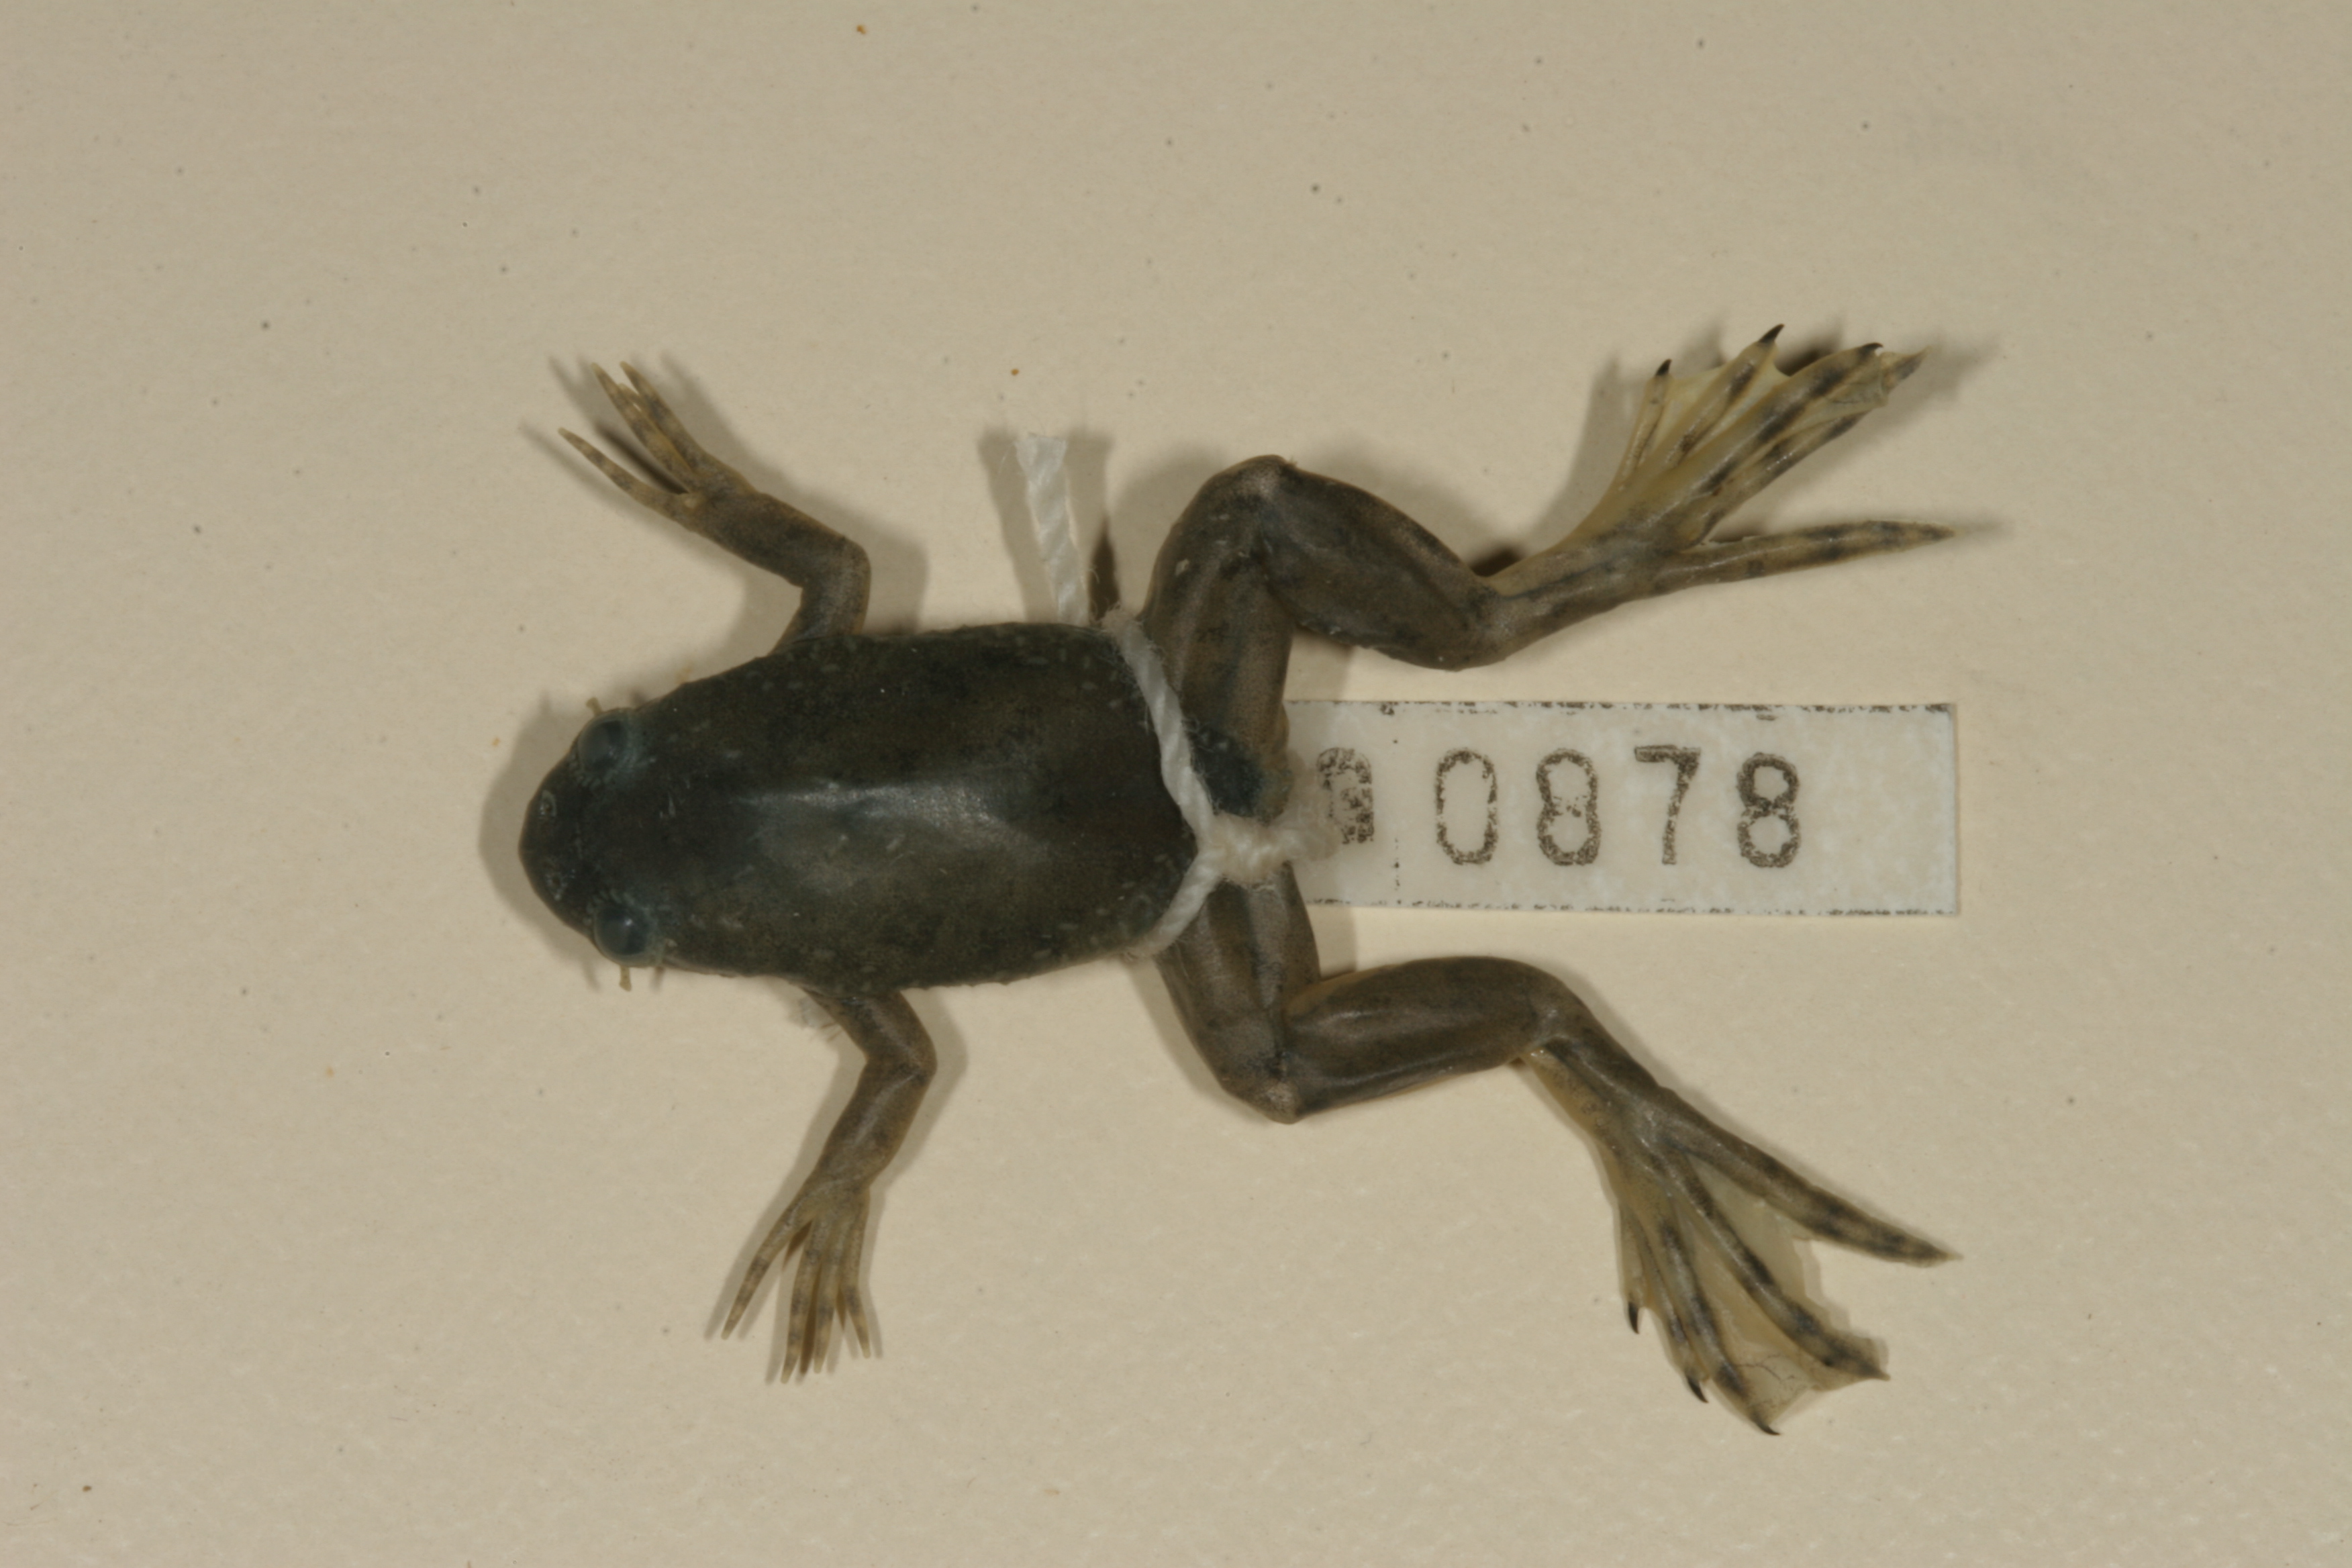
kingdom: Animalia
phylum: Chordata
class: Amphibia
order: Anura
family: Pipidae
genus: Xenopus
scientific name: Xenopus laevis
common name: African clawed frog
